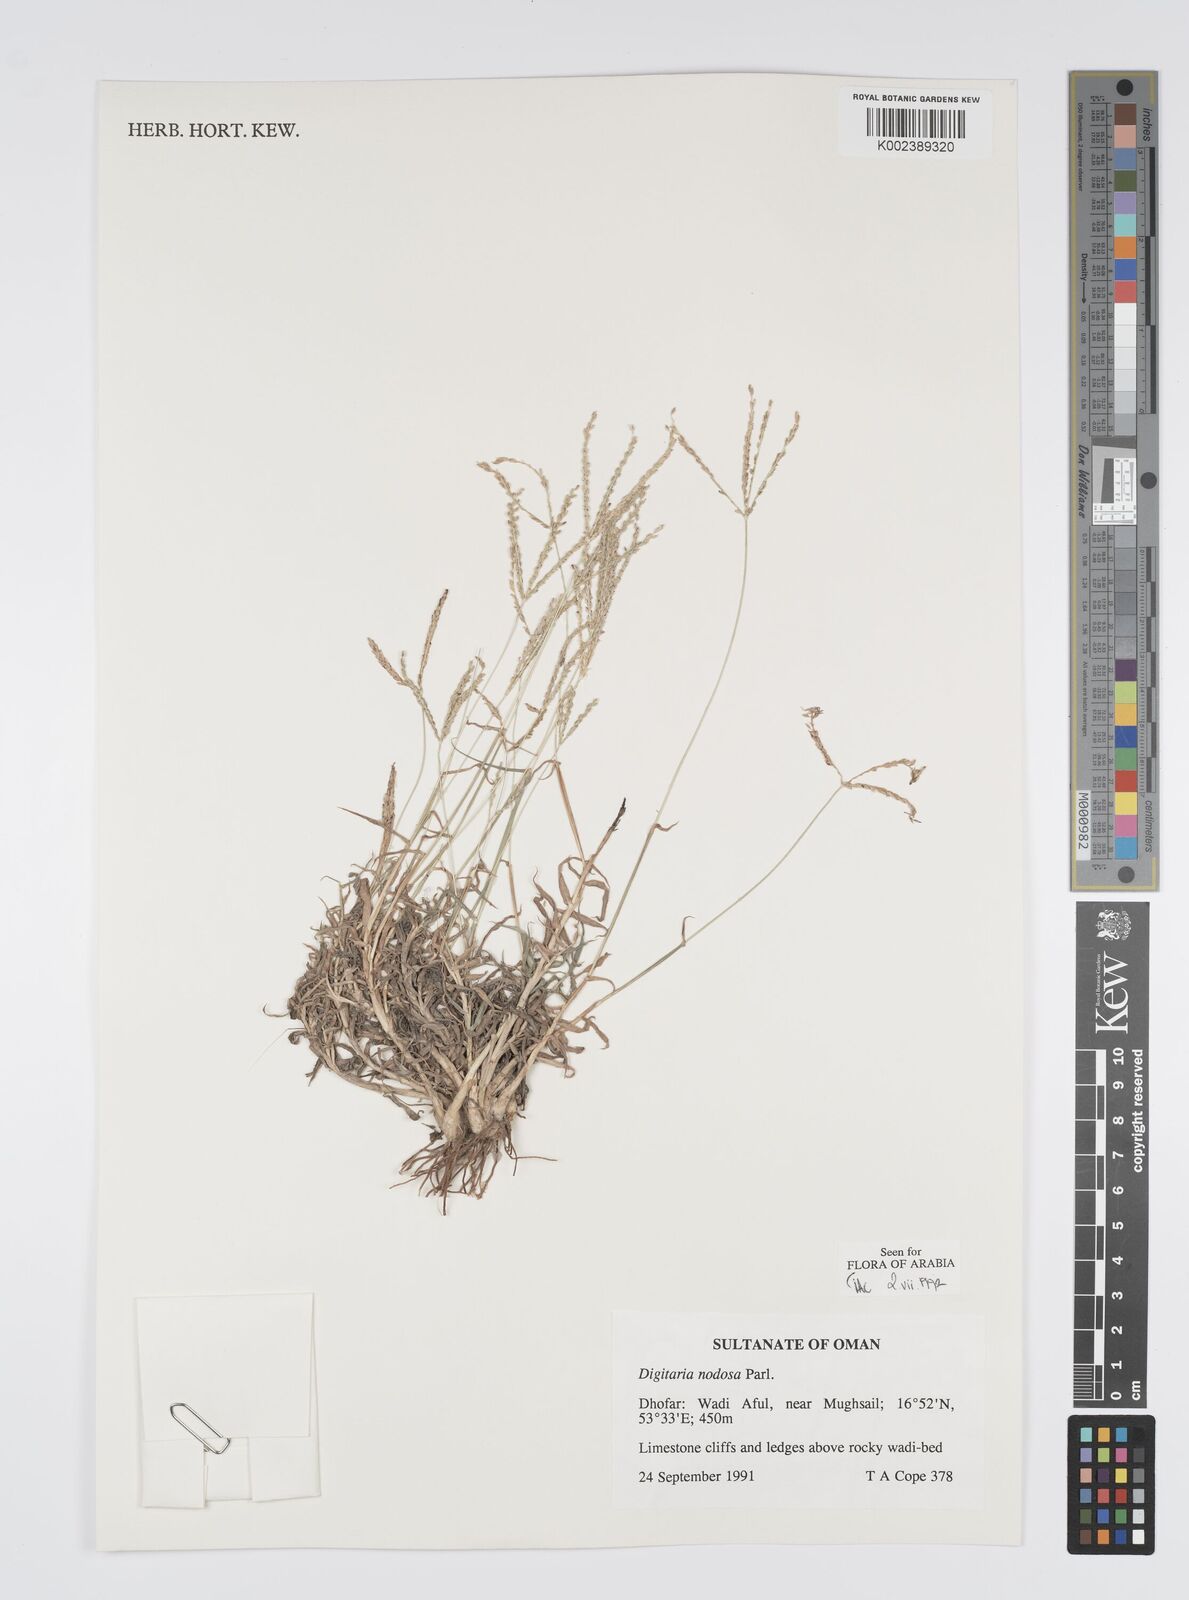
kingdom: Plantae
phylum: Tracheophyta
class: Liliopsida
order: Poales
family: Poaceae
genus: Digitaria
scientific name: Digitaria nodosa
